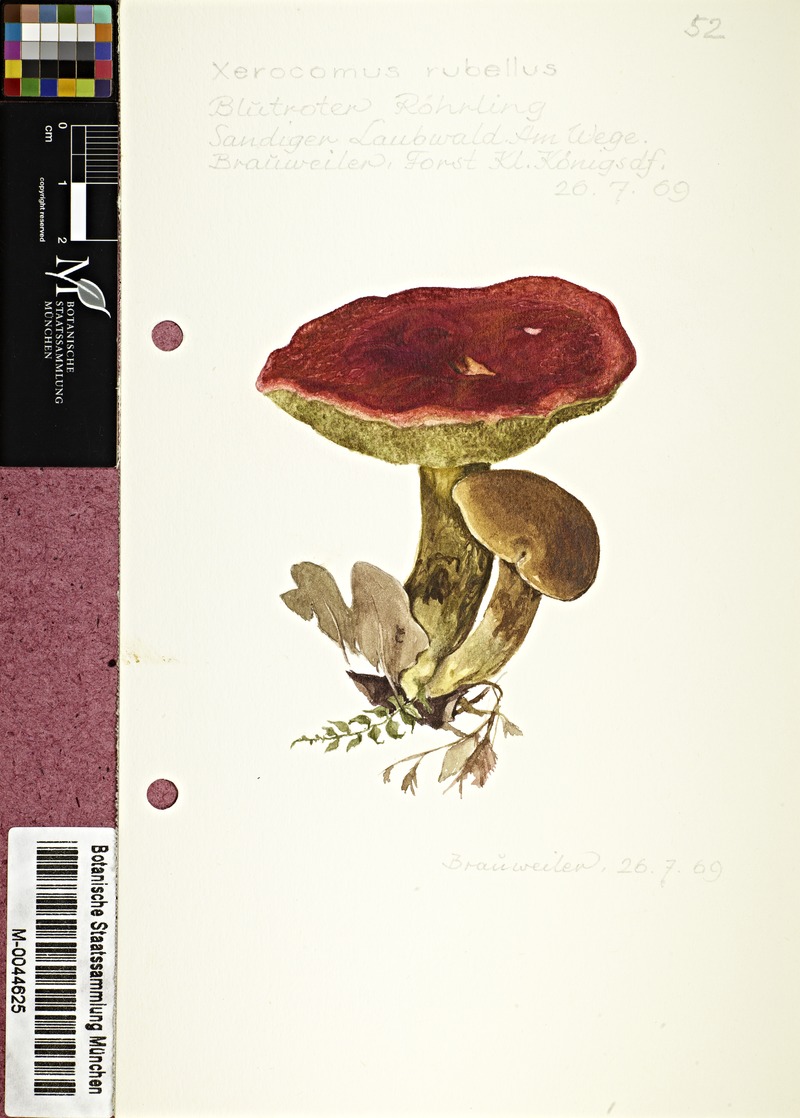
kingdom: Fungi
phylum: Basidiomycota
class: Agaricomycetes
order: Boletales
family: Boletaceae
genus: Hortiboletus
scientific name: Hortiboletus rubellus
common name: Ruby bolete
